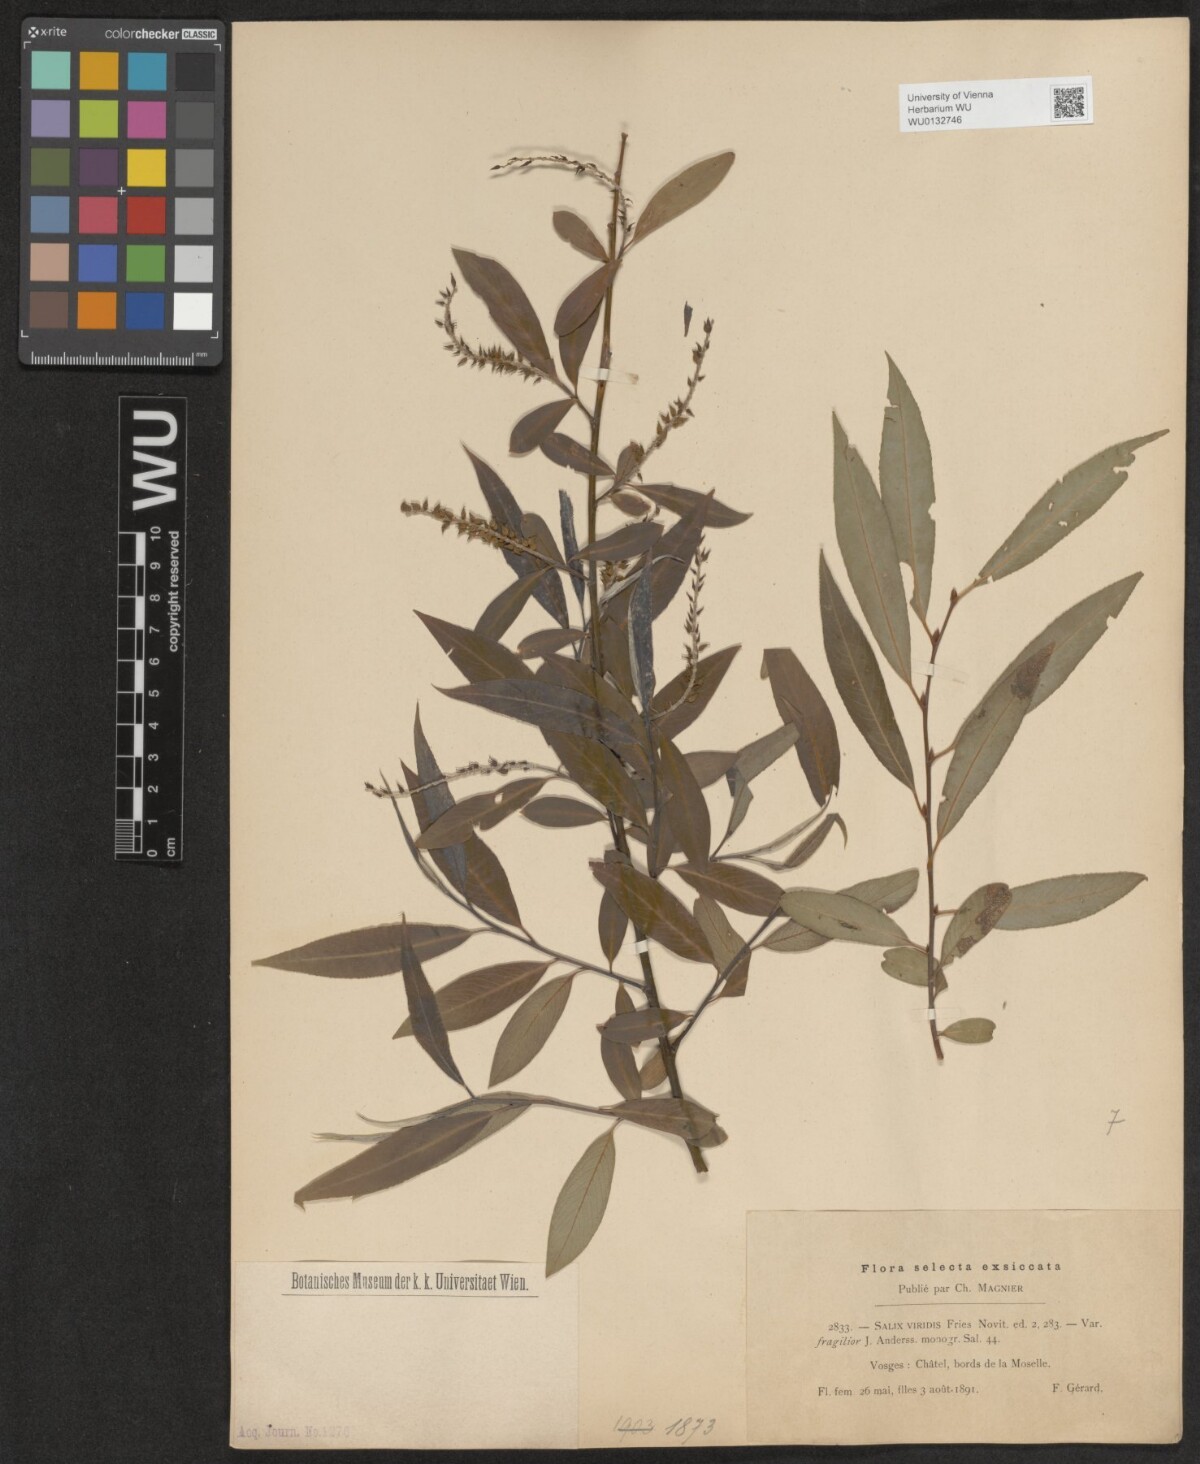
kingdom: Plantae
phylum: Tracheophyta
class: Magnoliopsida
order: Malpighiales
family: Salicaceae
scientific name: Salicaceae
